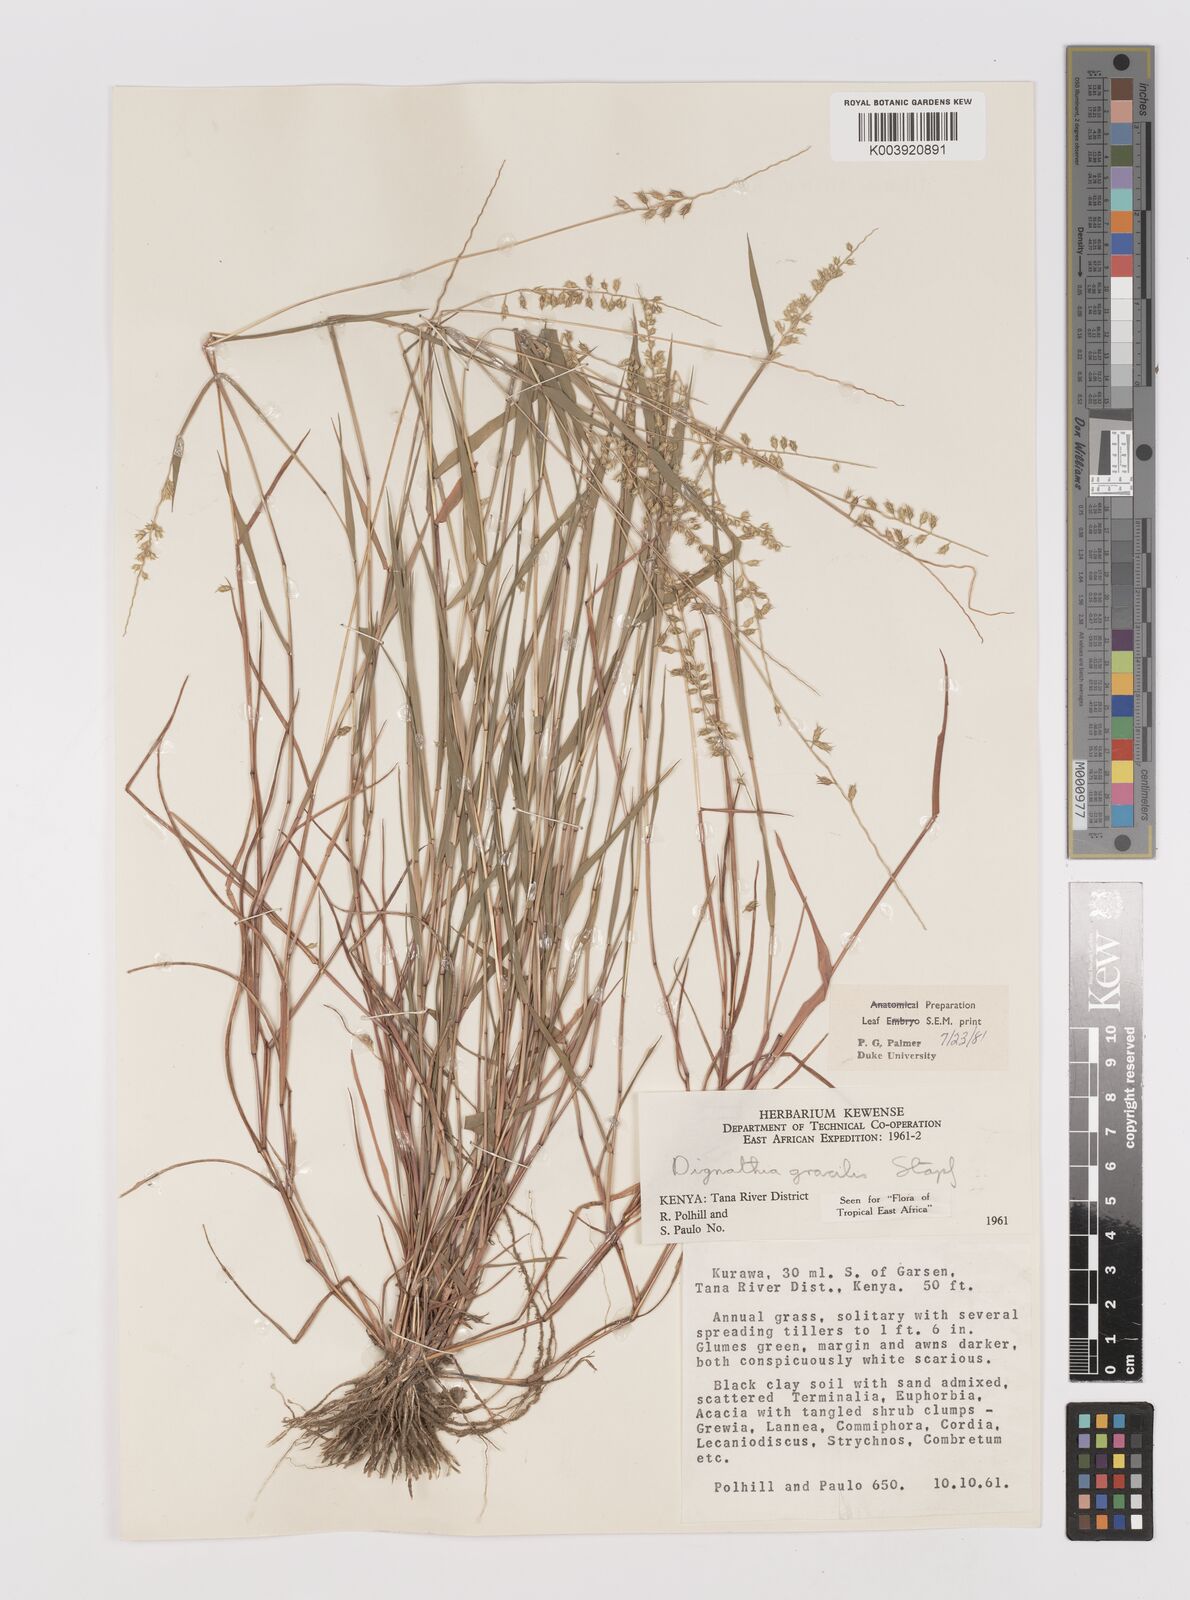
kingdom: Plantae
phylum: Tracheophyta
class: Liliopsida
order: Poales
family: Poaceae
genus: Dignathia
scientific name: Dignathia gracilis
